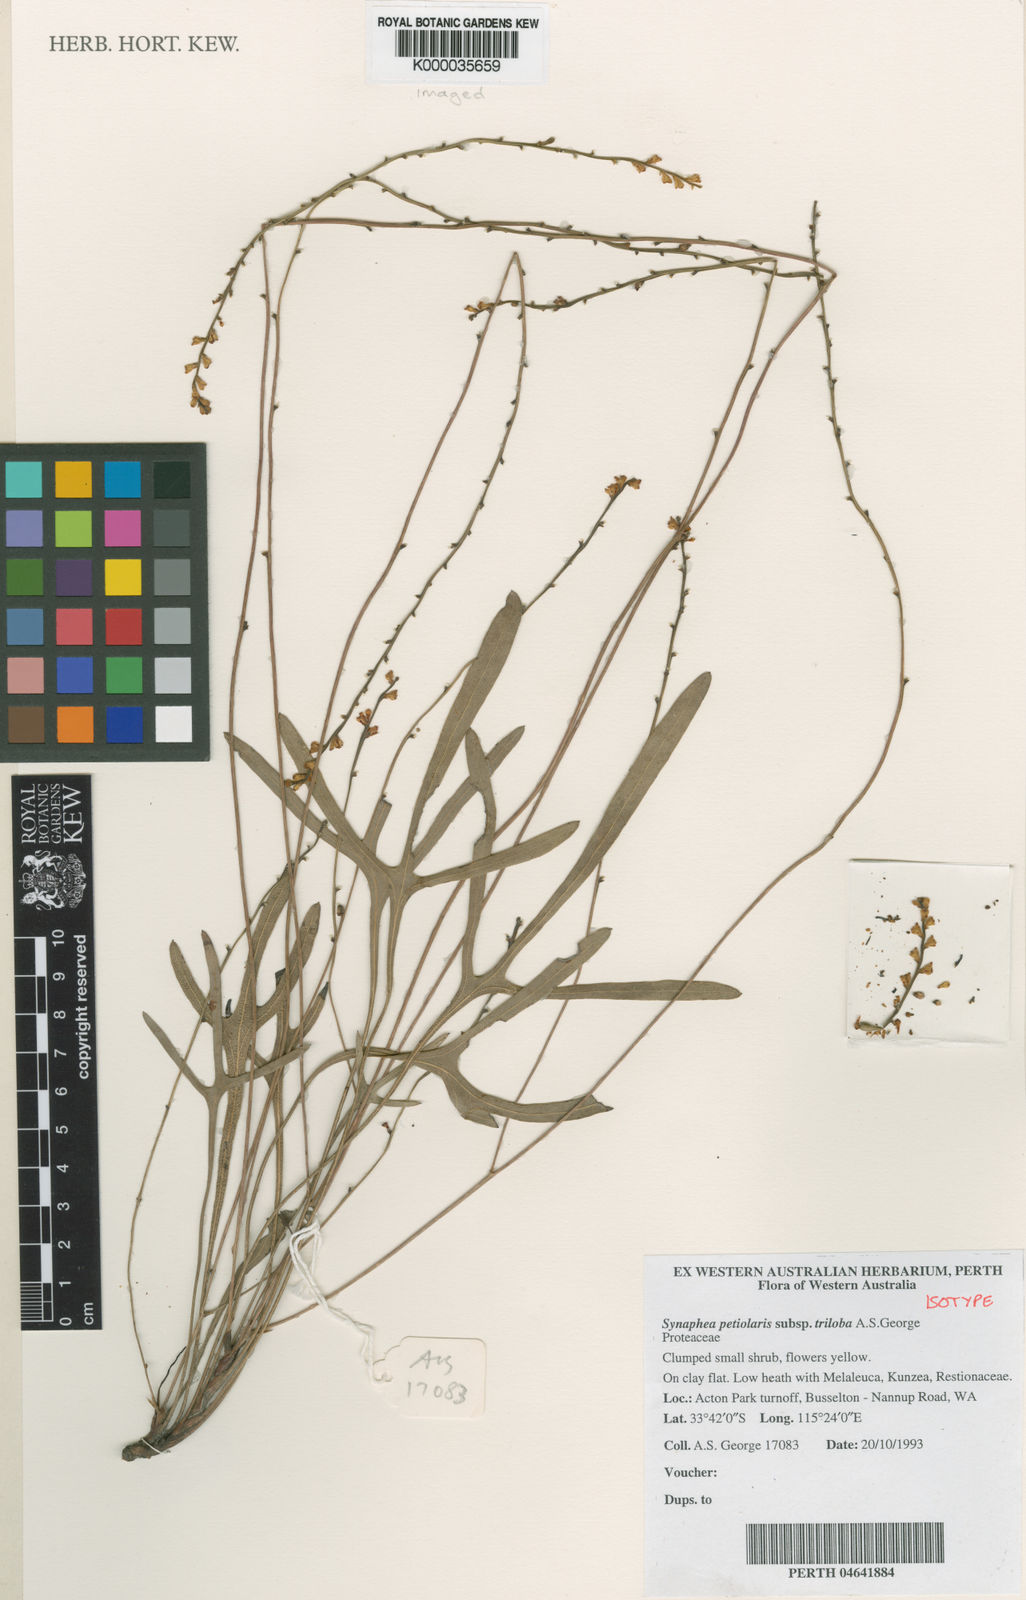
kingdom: Plantae
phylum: Tracheophyta
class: Magnoliopsida
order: Proteales
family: Proteaceae
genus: Synaphea
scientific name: Synaphea petiolaris
